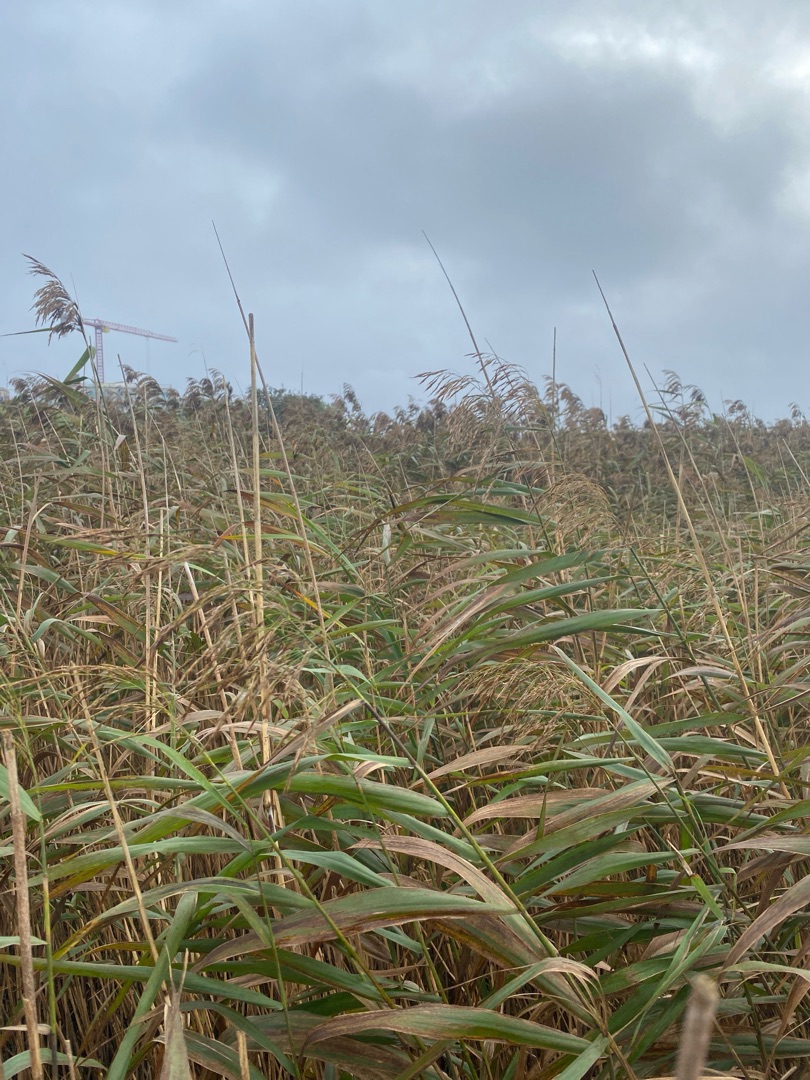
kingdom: Plantae
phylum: Tracheophyta
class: Liliopsida
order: Poales
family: Poaceae
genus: Phragmites
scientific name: Phragmites australis
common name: Tagrør
